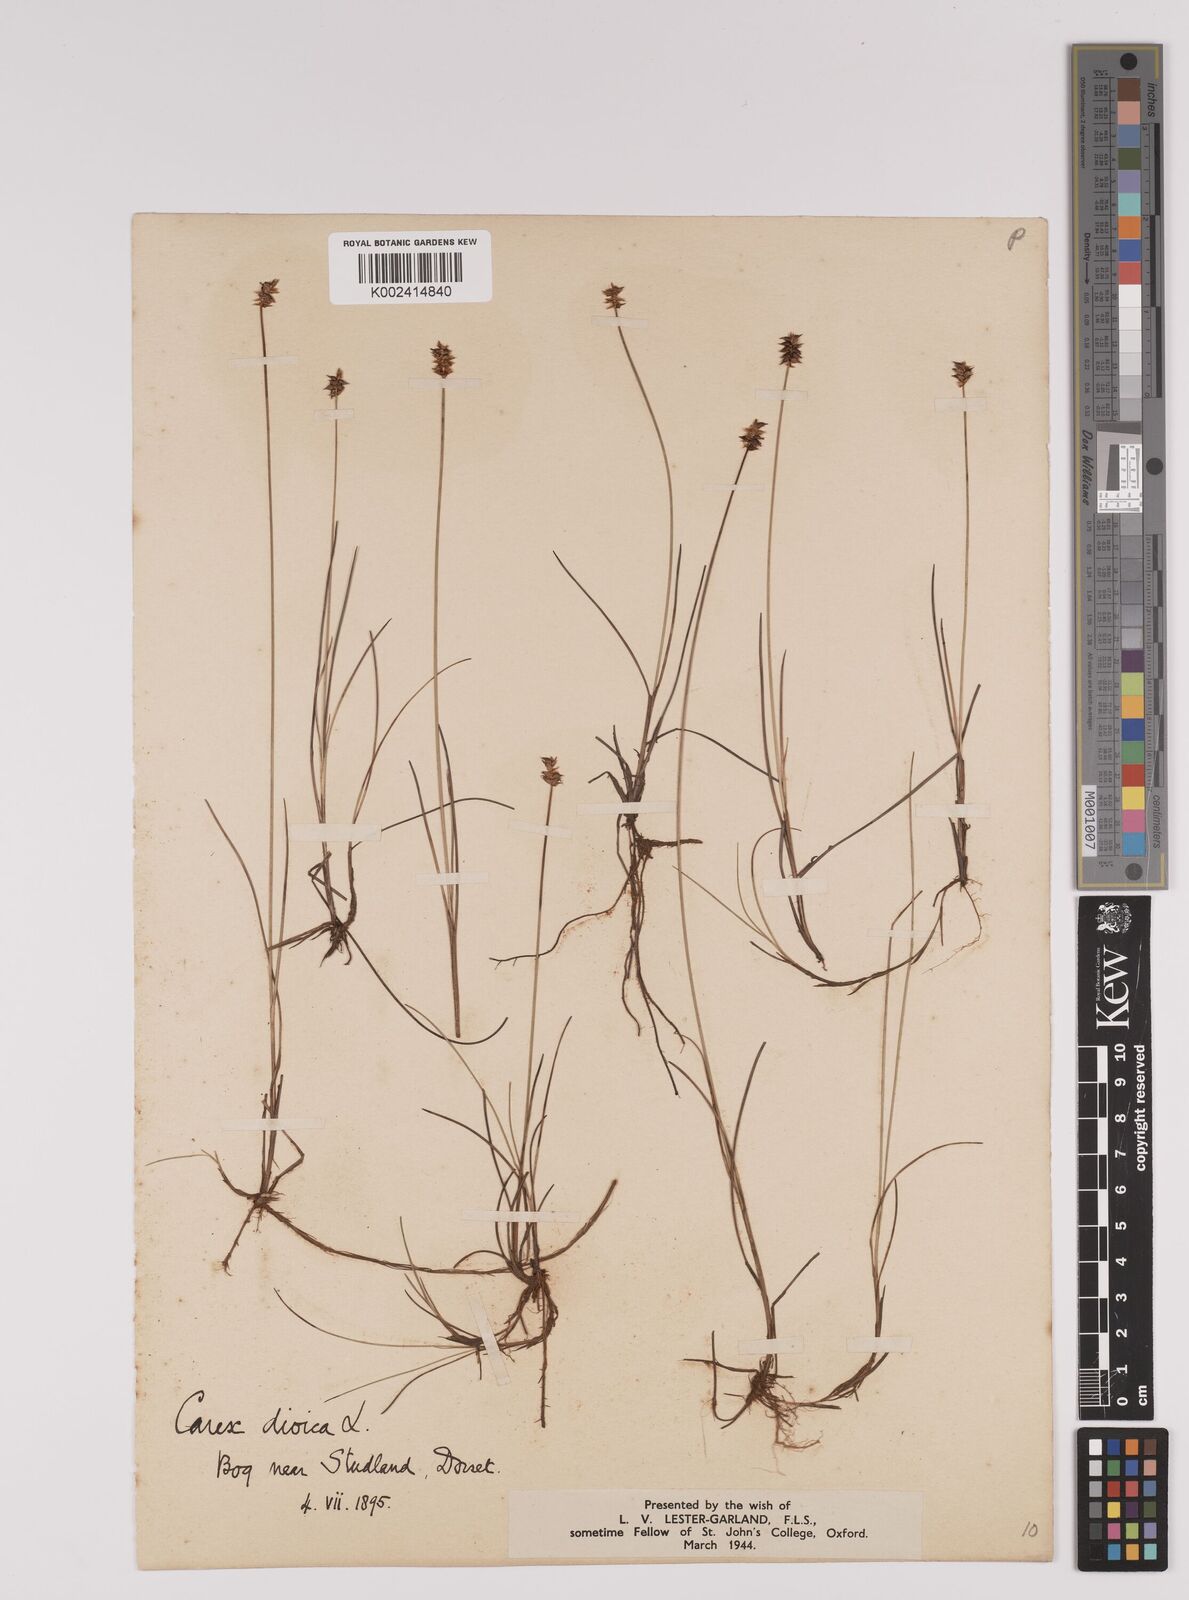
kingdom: Plantae
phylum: Tracheophyta
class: Liliopsida
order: Poales
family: Cyperaceae
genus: Carex
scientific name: Carex dioica
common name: Dioecious sedge
